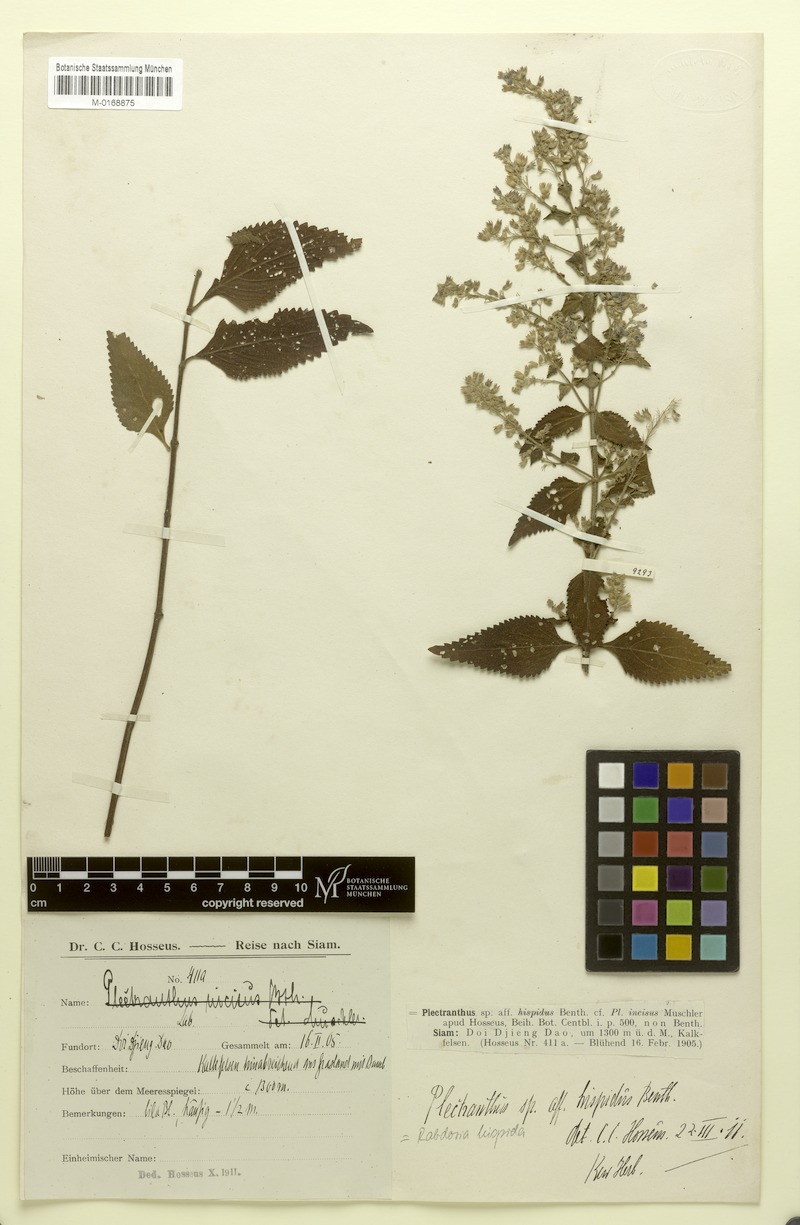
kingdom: Plantae
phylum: Tracheophyta
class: Magnoliopsida
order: Lamiales
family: Lamiaceae
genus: Isodon
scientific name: Isodon hispidus
